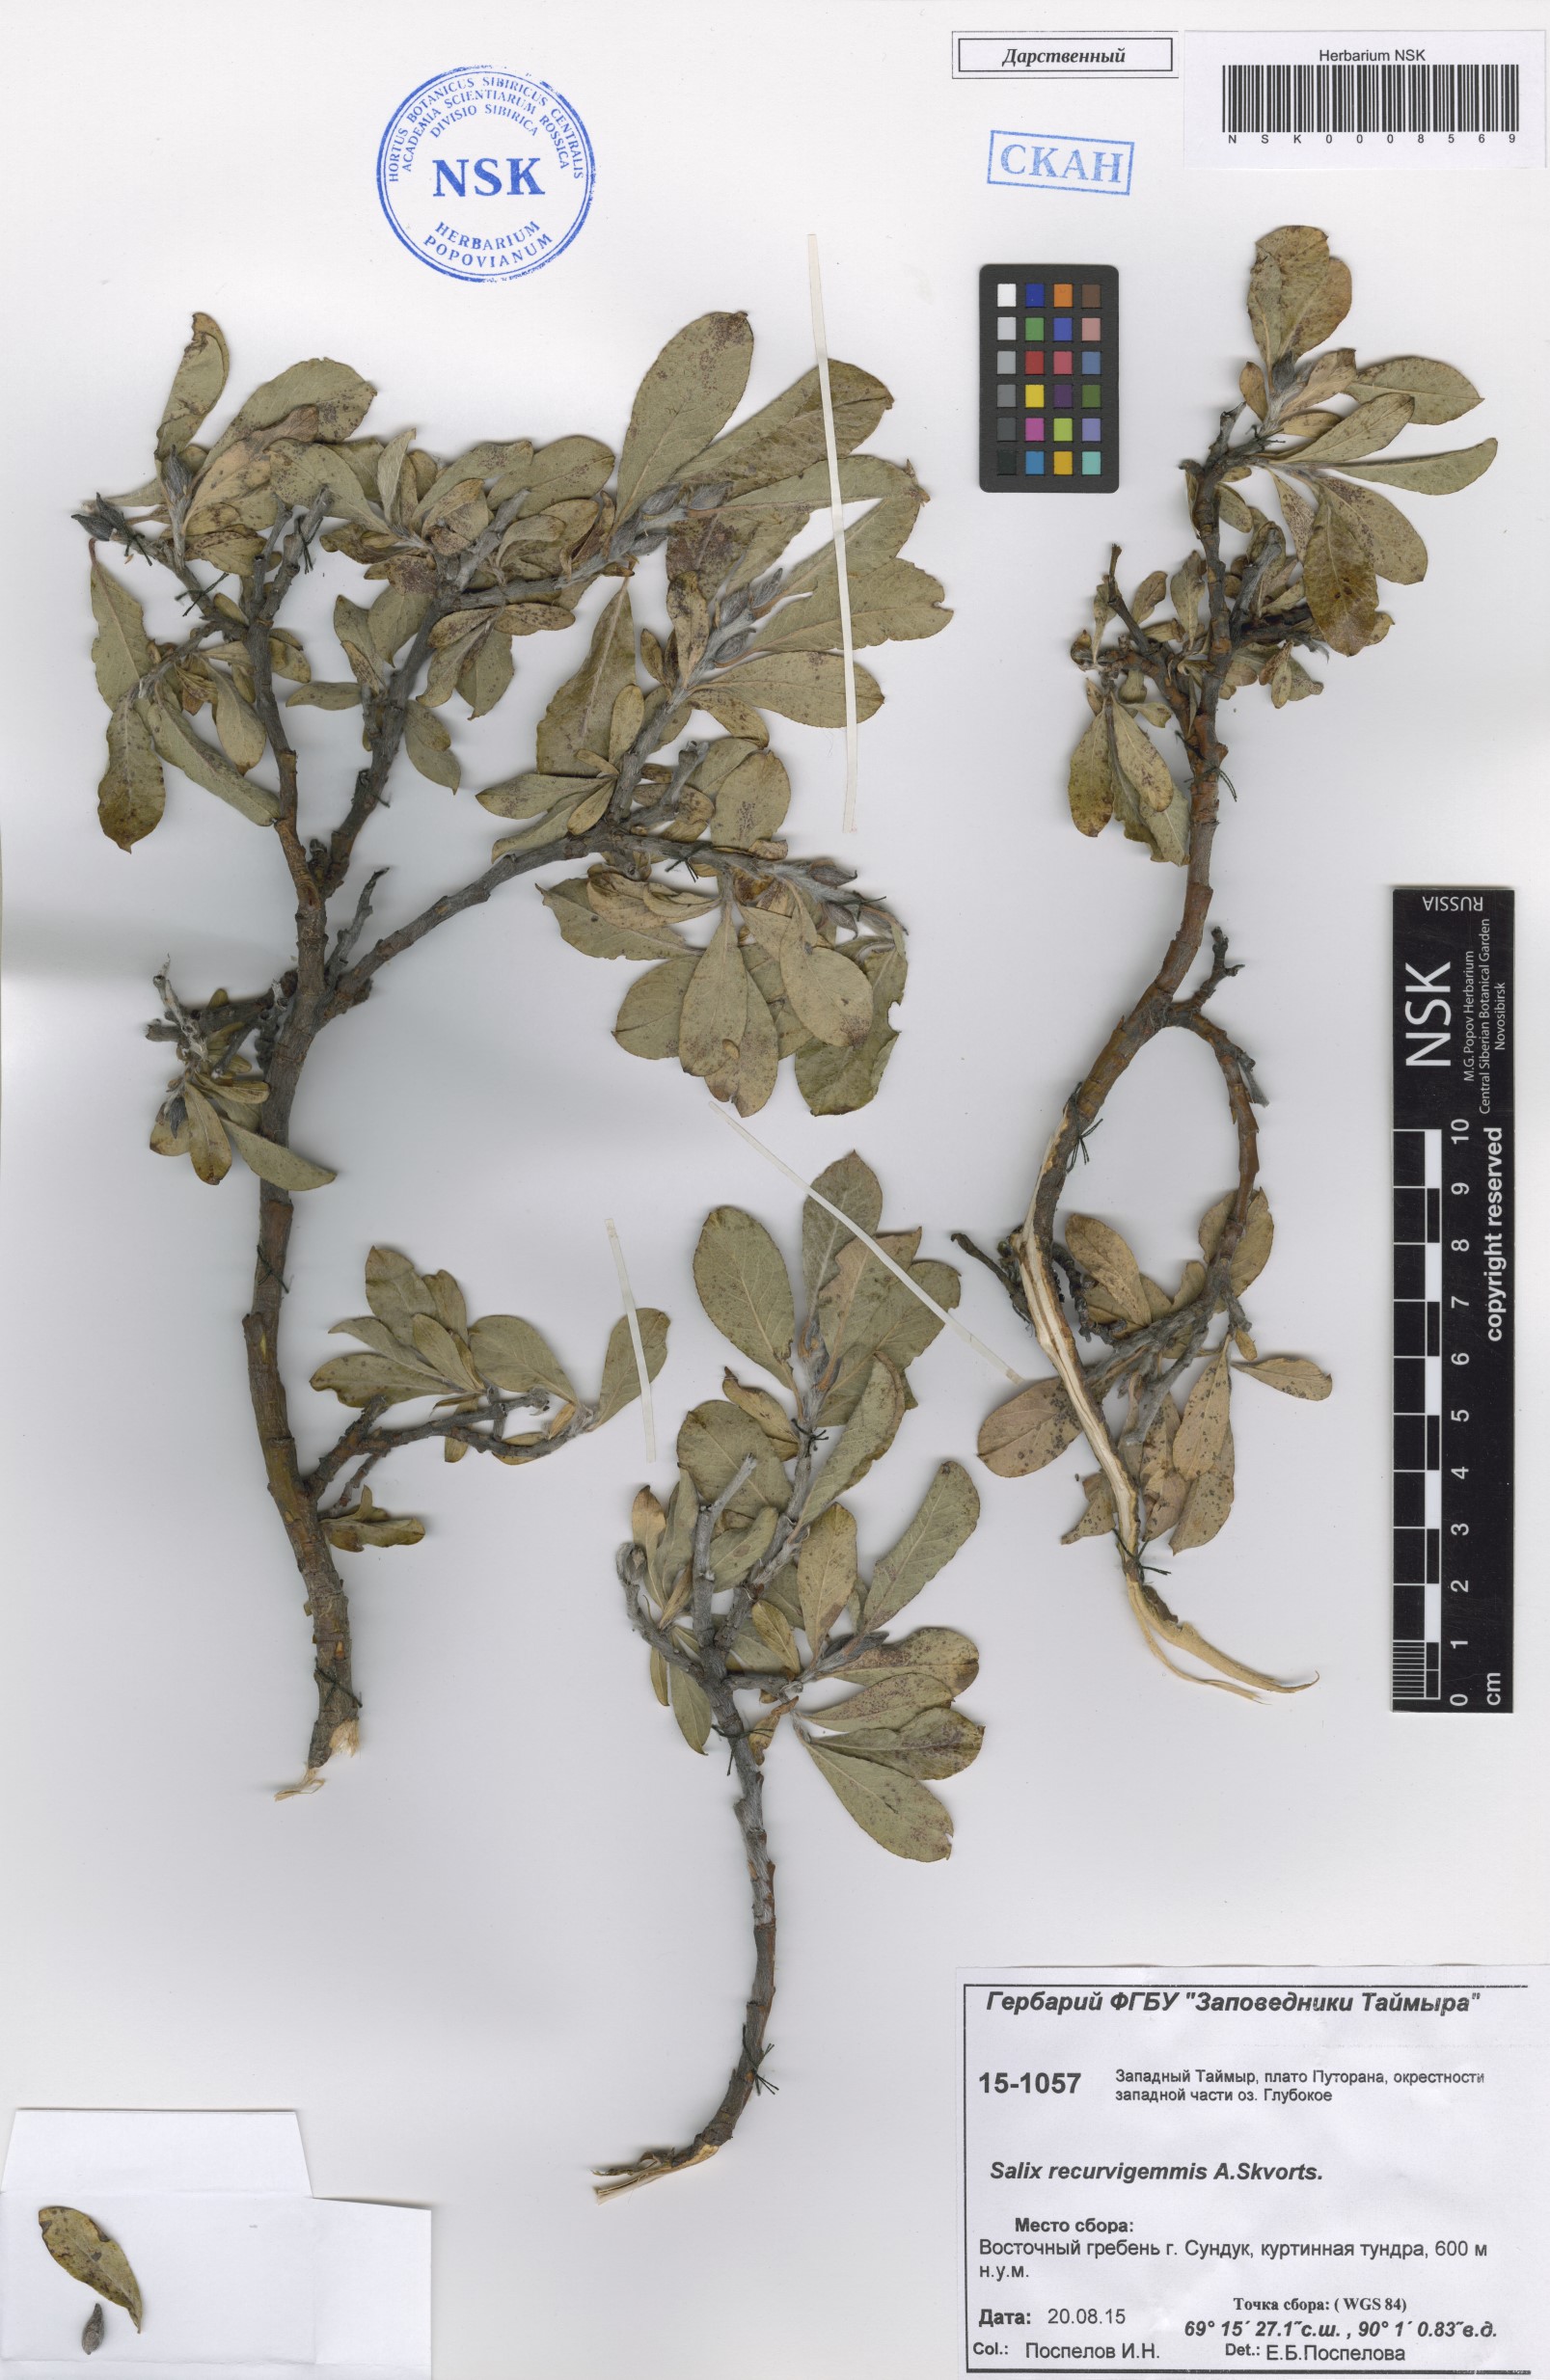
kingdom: Plantae
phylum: Tracheophyta
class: Magnoliopsida
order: Malpighiales
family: Salicaceae
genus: Salix
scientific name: Salix recurvigemmata
